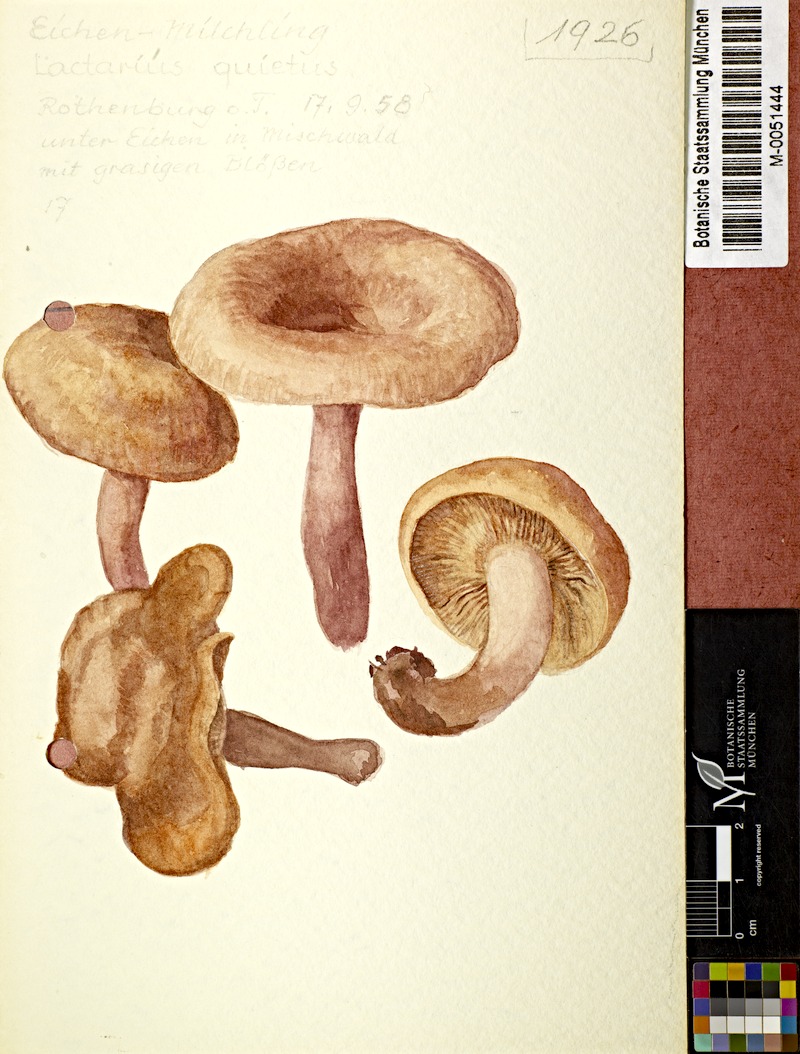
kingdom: Fungi
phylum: Basidiomycota
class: Agaricomycetes
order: Russulales
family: Russulaceae
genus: Lactarius
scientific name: Lactarius quietus
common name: Oak milk-cap
